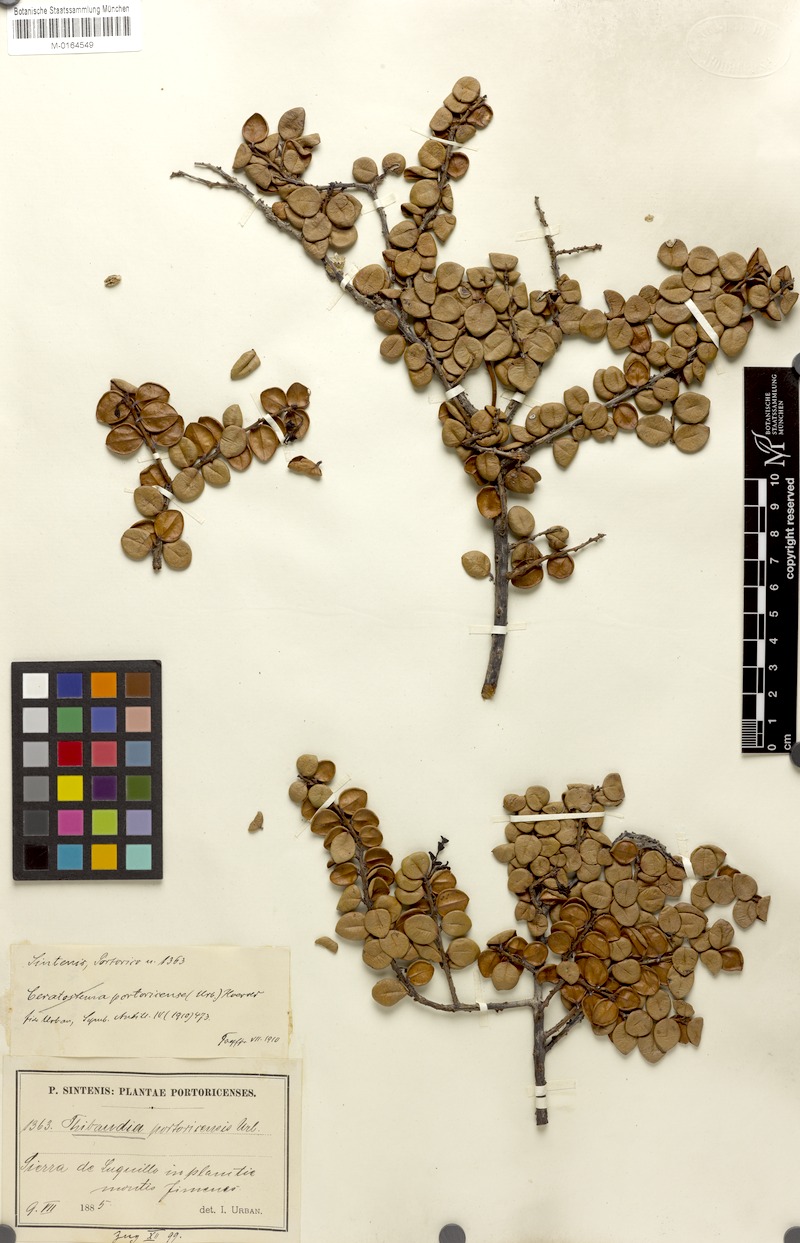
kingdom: Plantae
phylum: Tracheophyta
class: Magnoliopsida
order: Ericales
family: Ericaceae
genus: Gonocalyx
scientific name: Gonocalyx portoricensis
